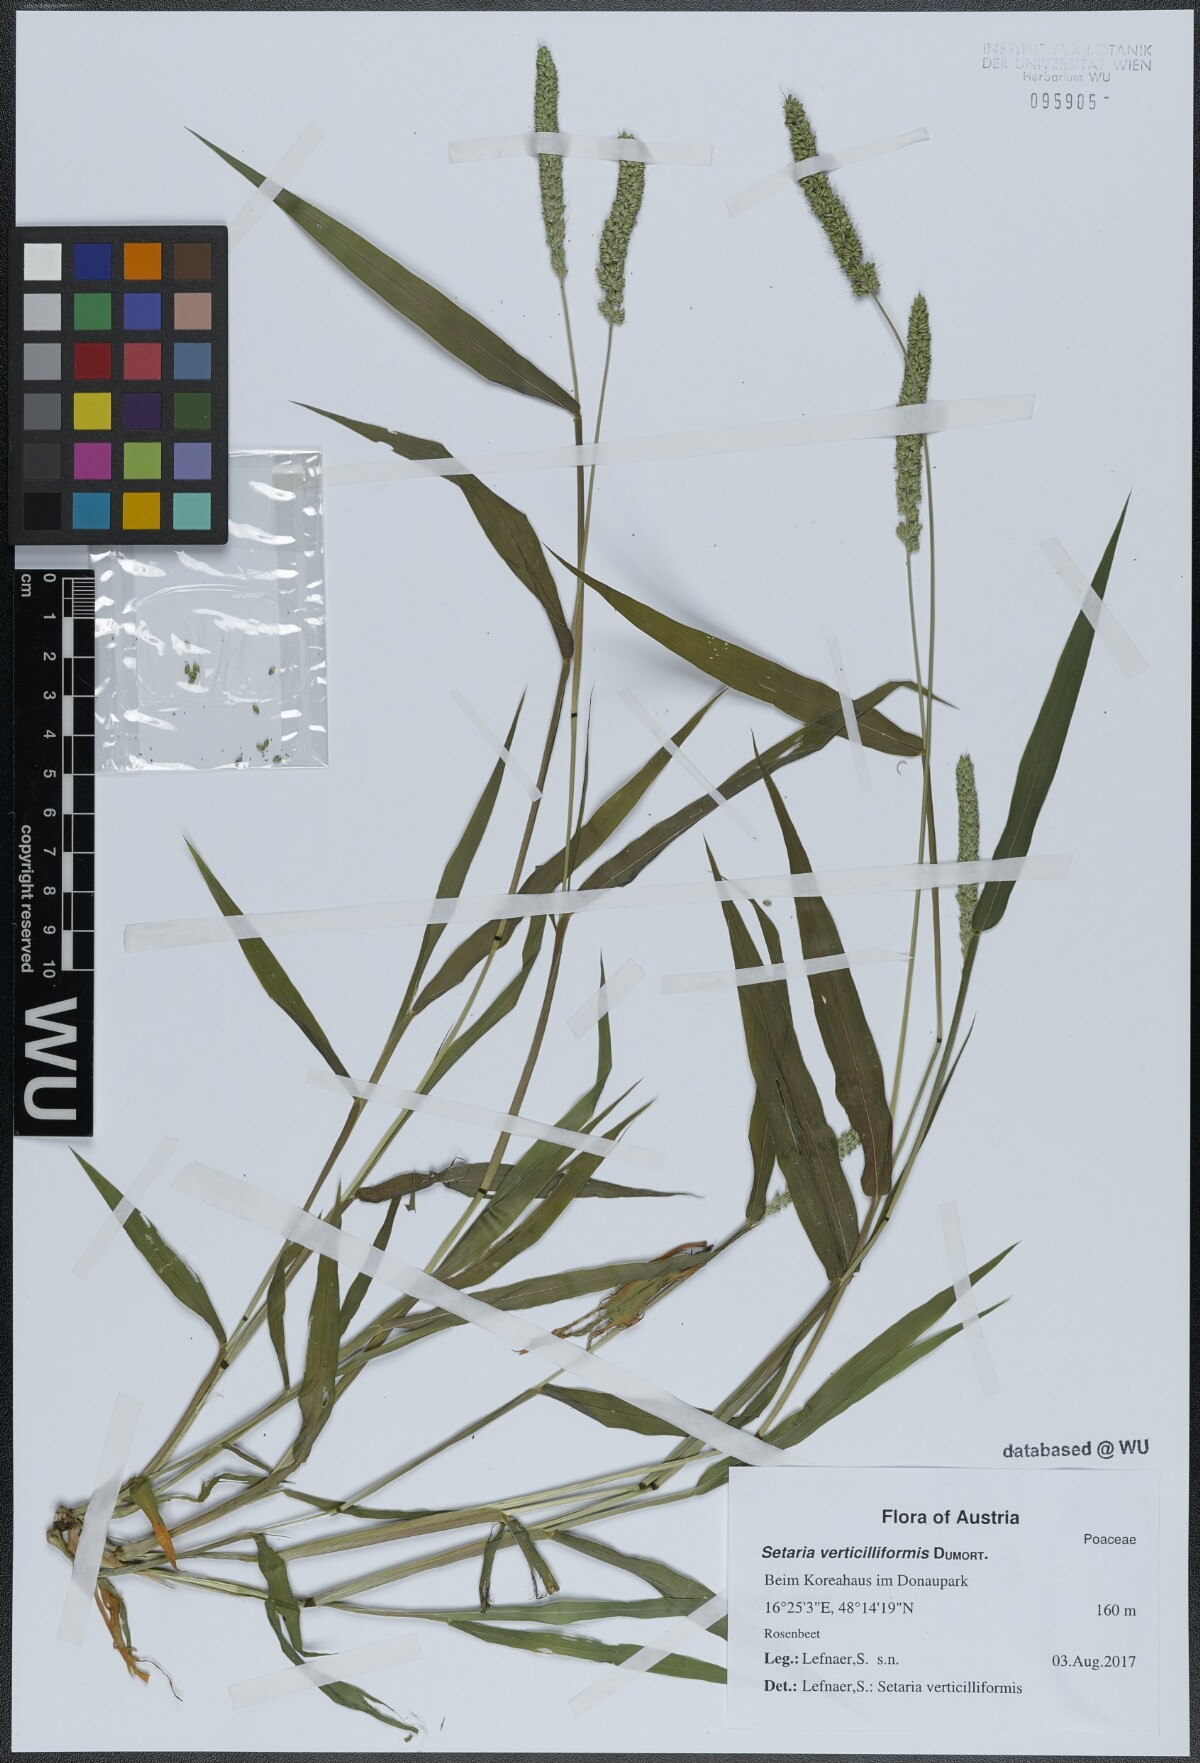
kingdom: Plantae
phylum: Tracheophyta
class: Liliopsida
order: Poales
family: Poaceae
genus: Setaria
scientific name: Setaria verticillata
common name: Hooked bristlegrass
